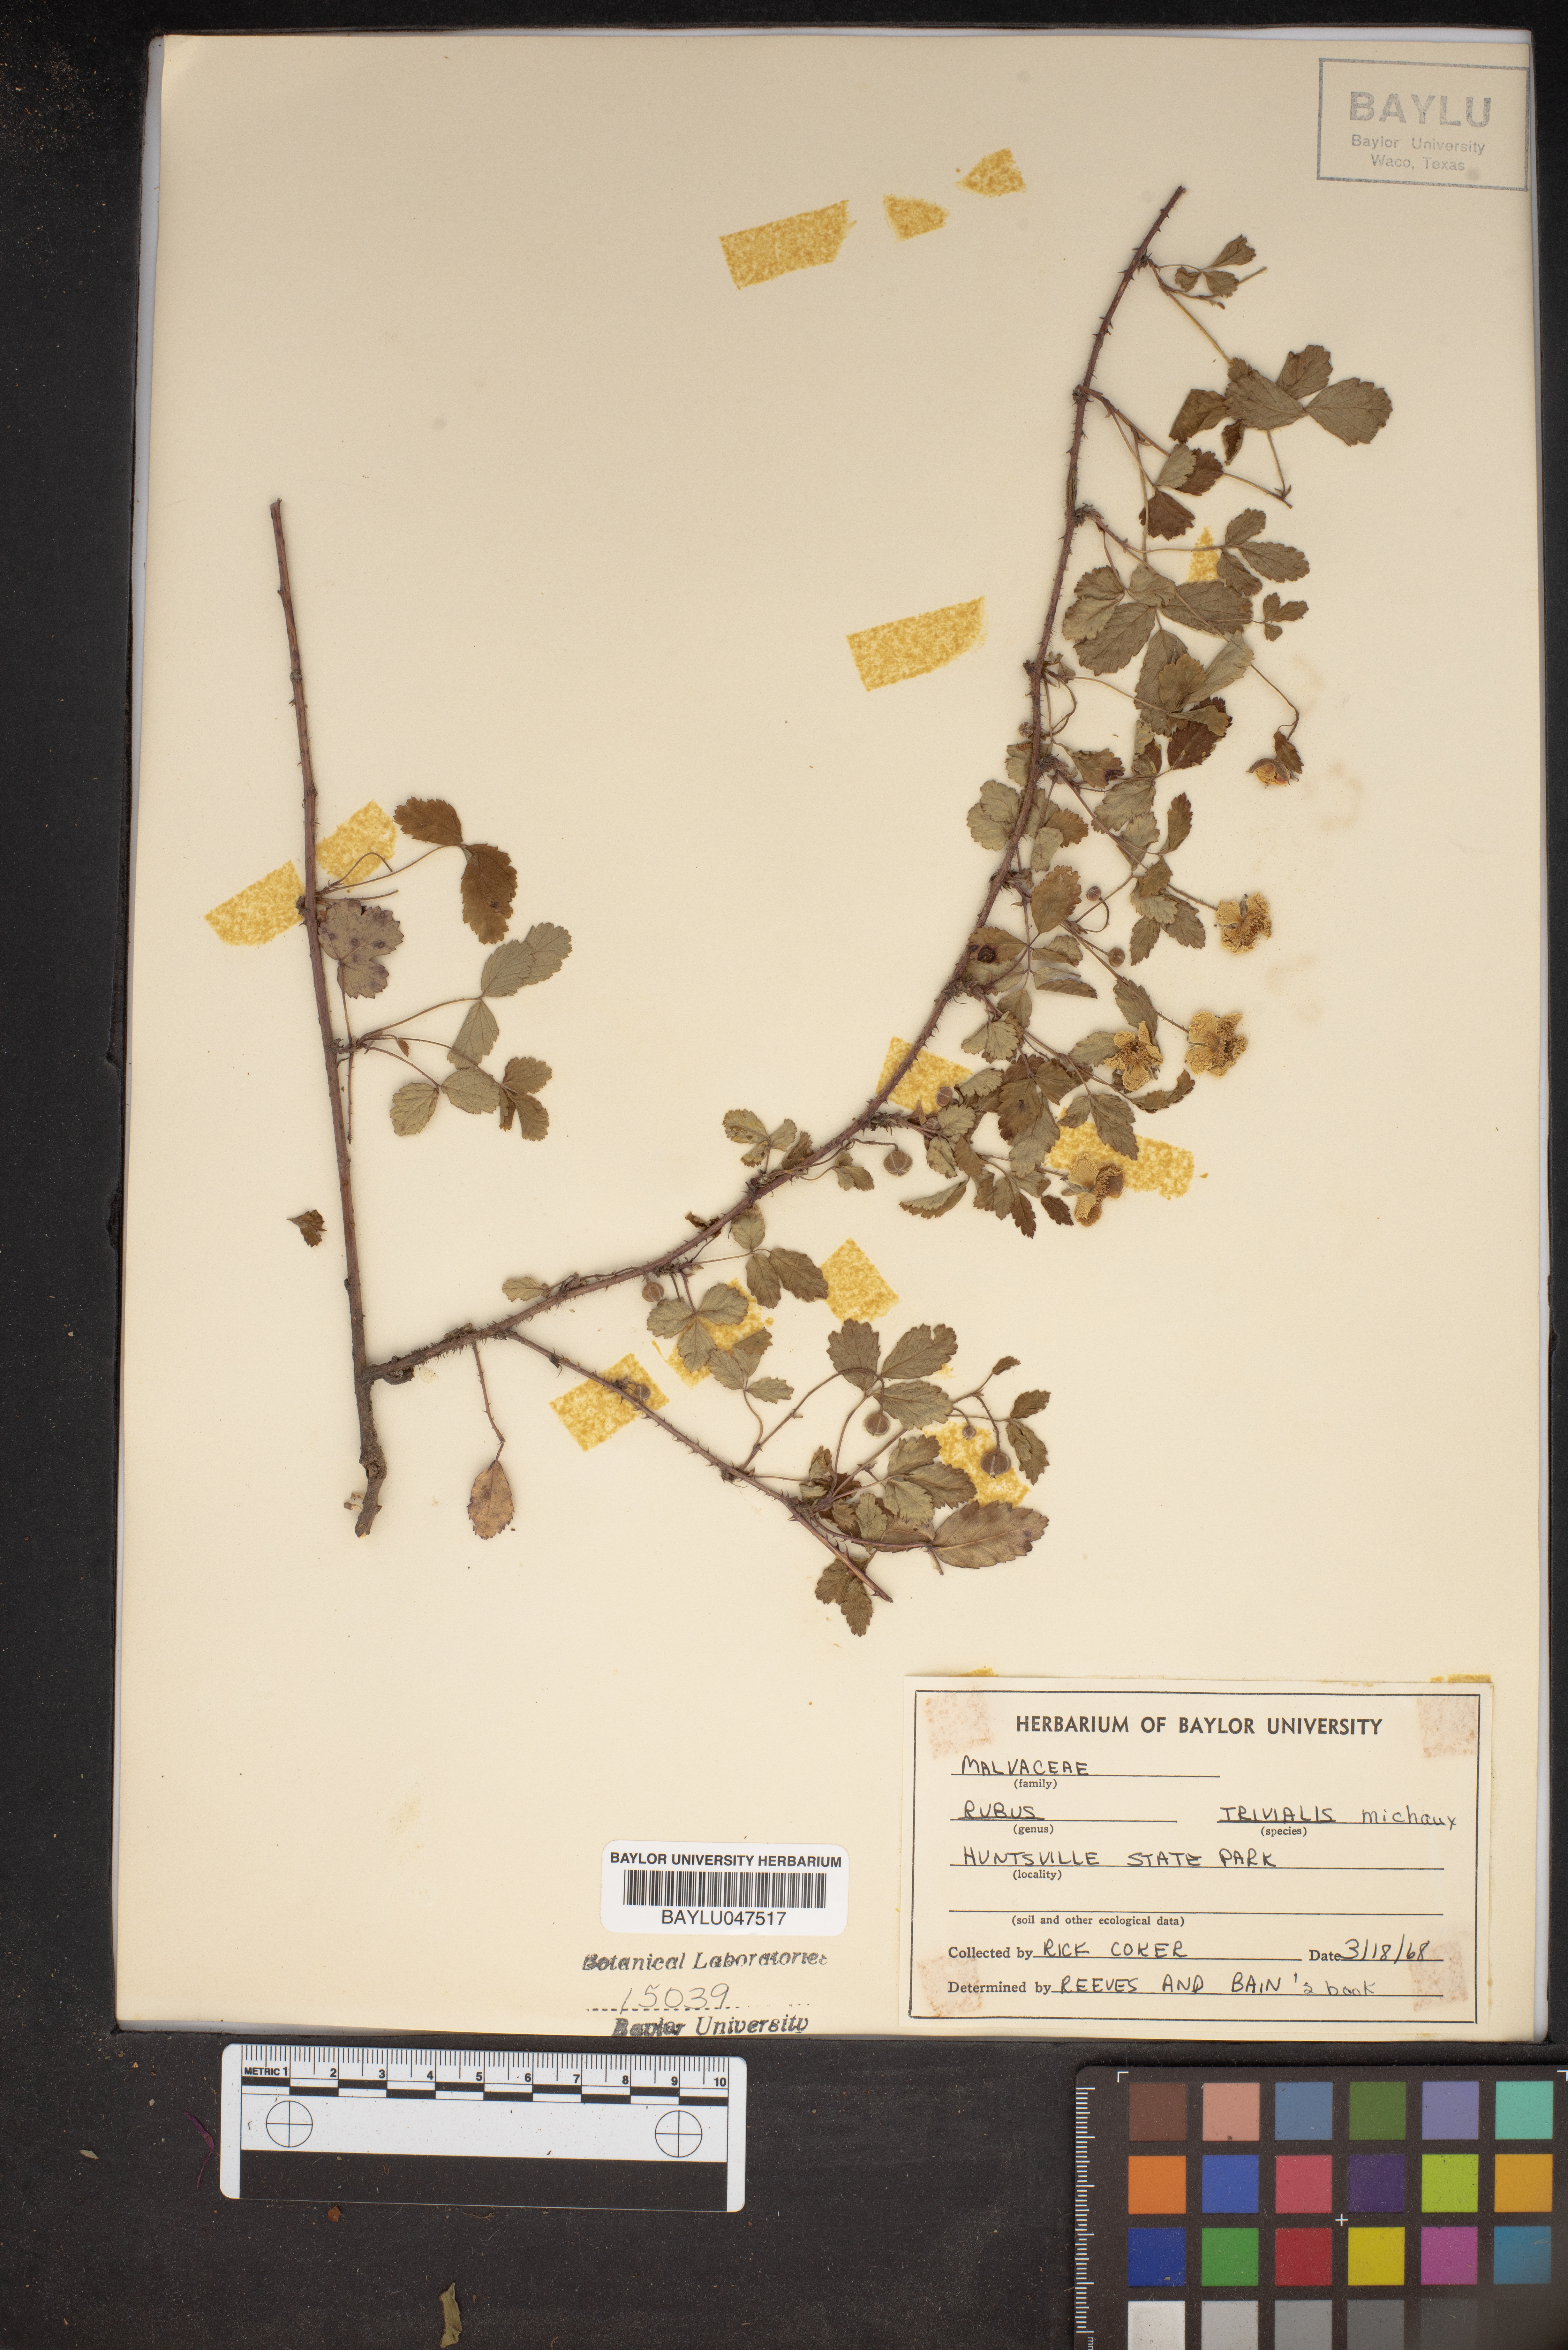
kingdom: Plantae
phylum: Tracheophyta
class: Magnoliopsida
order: Rosales
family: Rosaceae
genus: Rubus
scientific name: Rubus trivialis
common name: Southern dewberry
